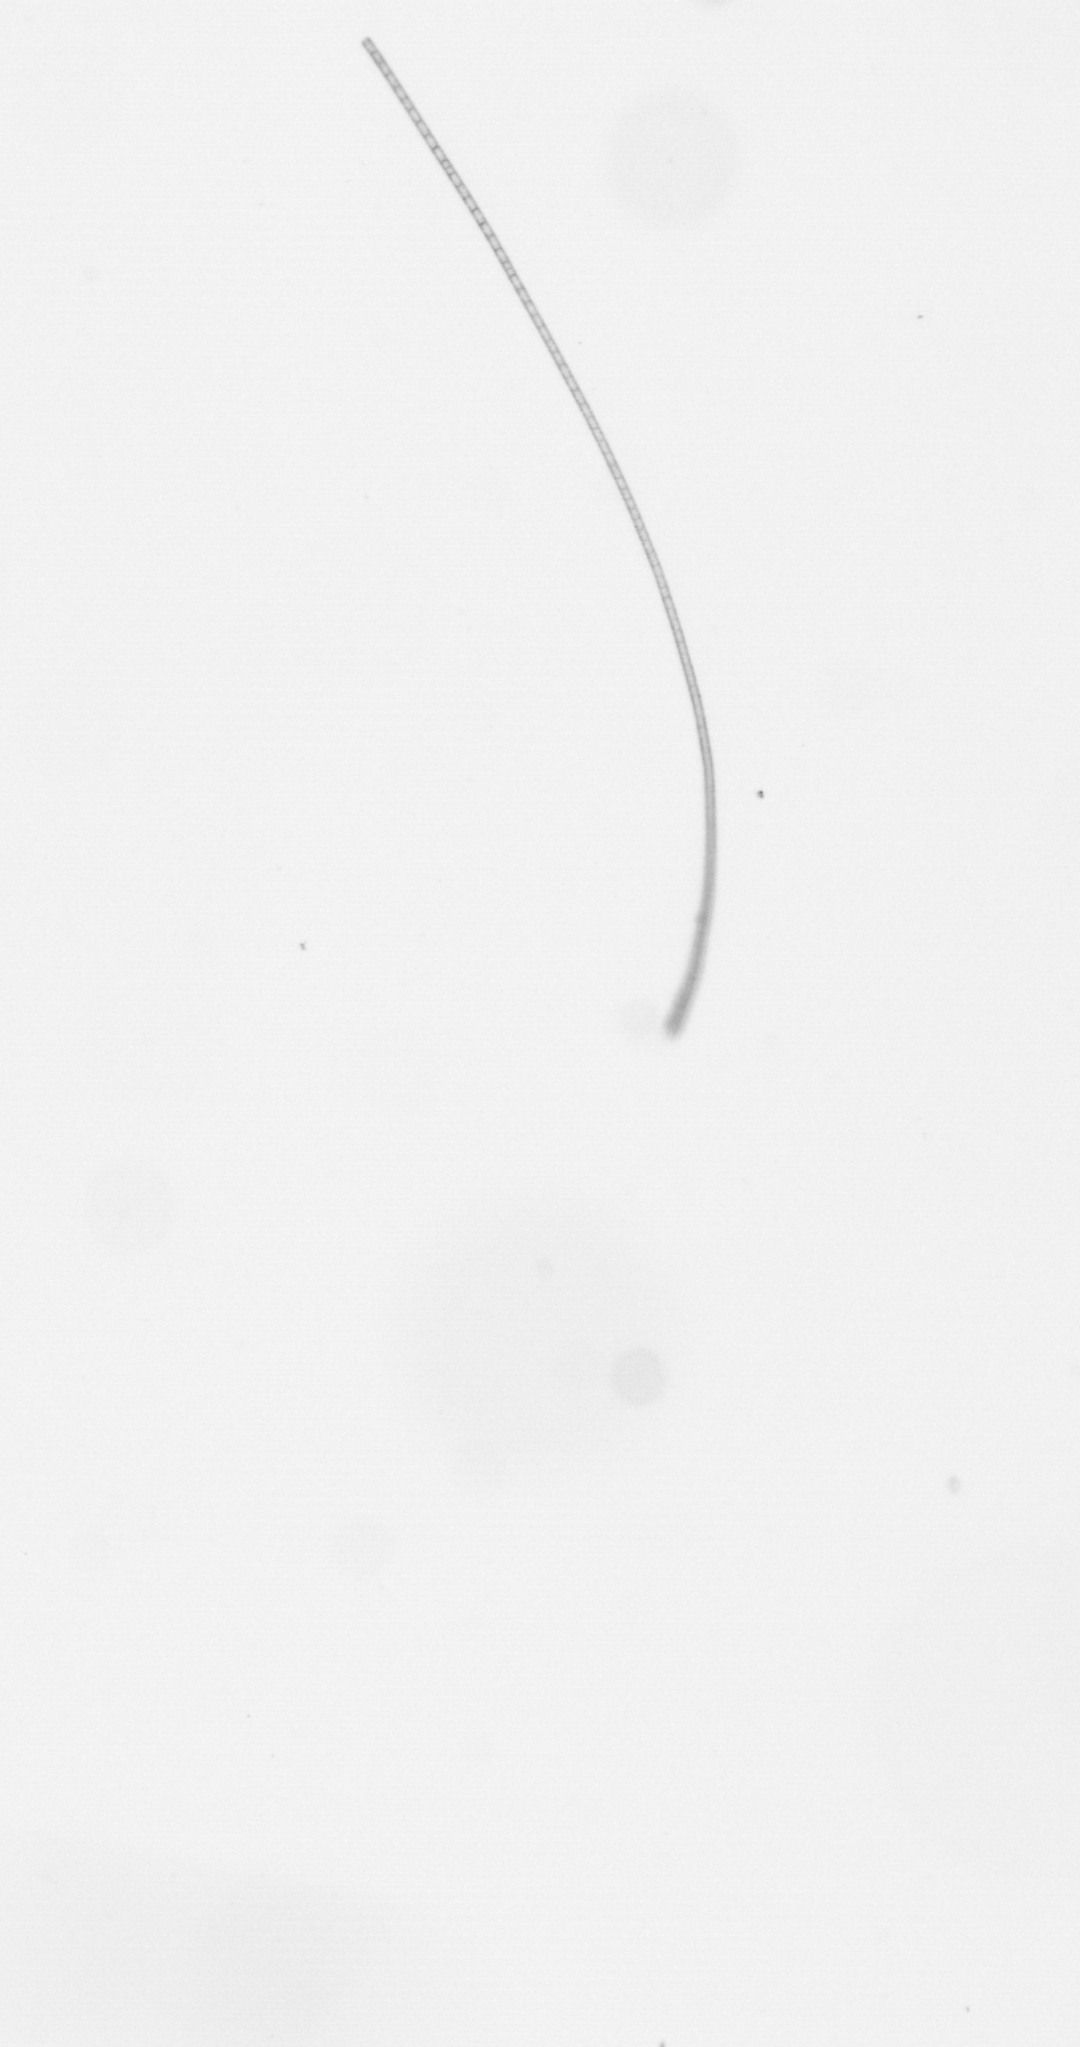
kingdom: Chromista
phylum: Ochrophyta
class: Bacillariophyceae
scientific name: Bacillariophyceae
